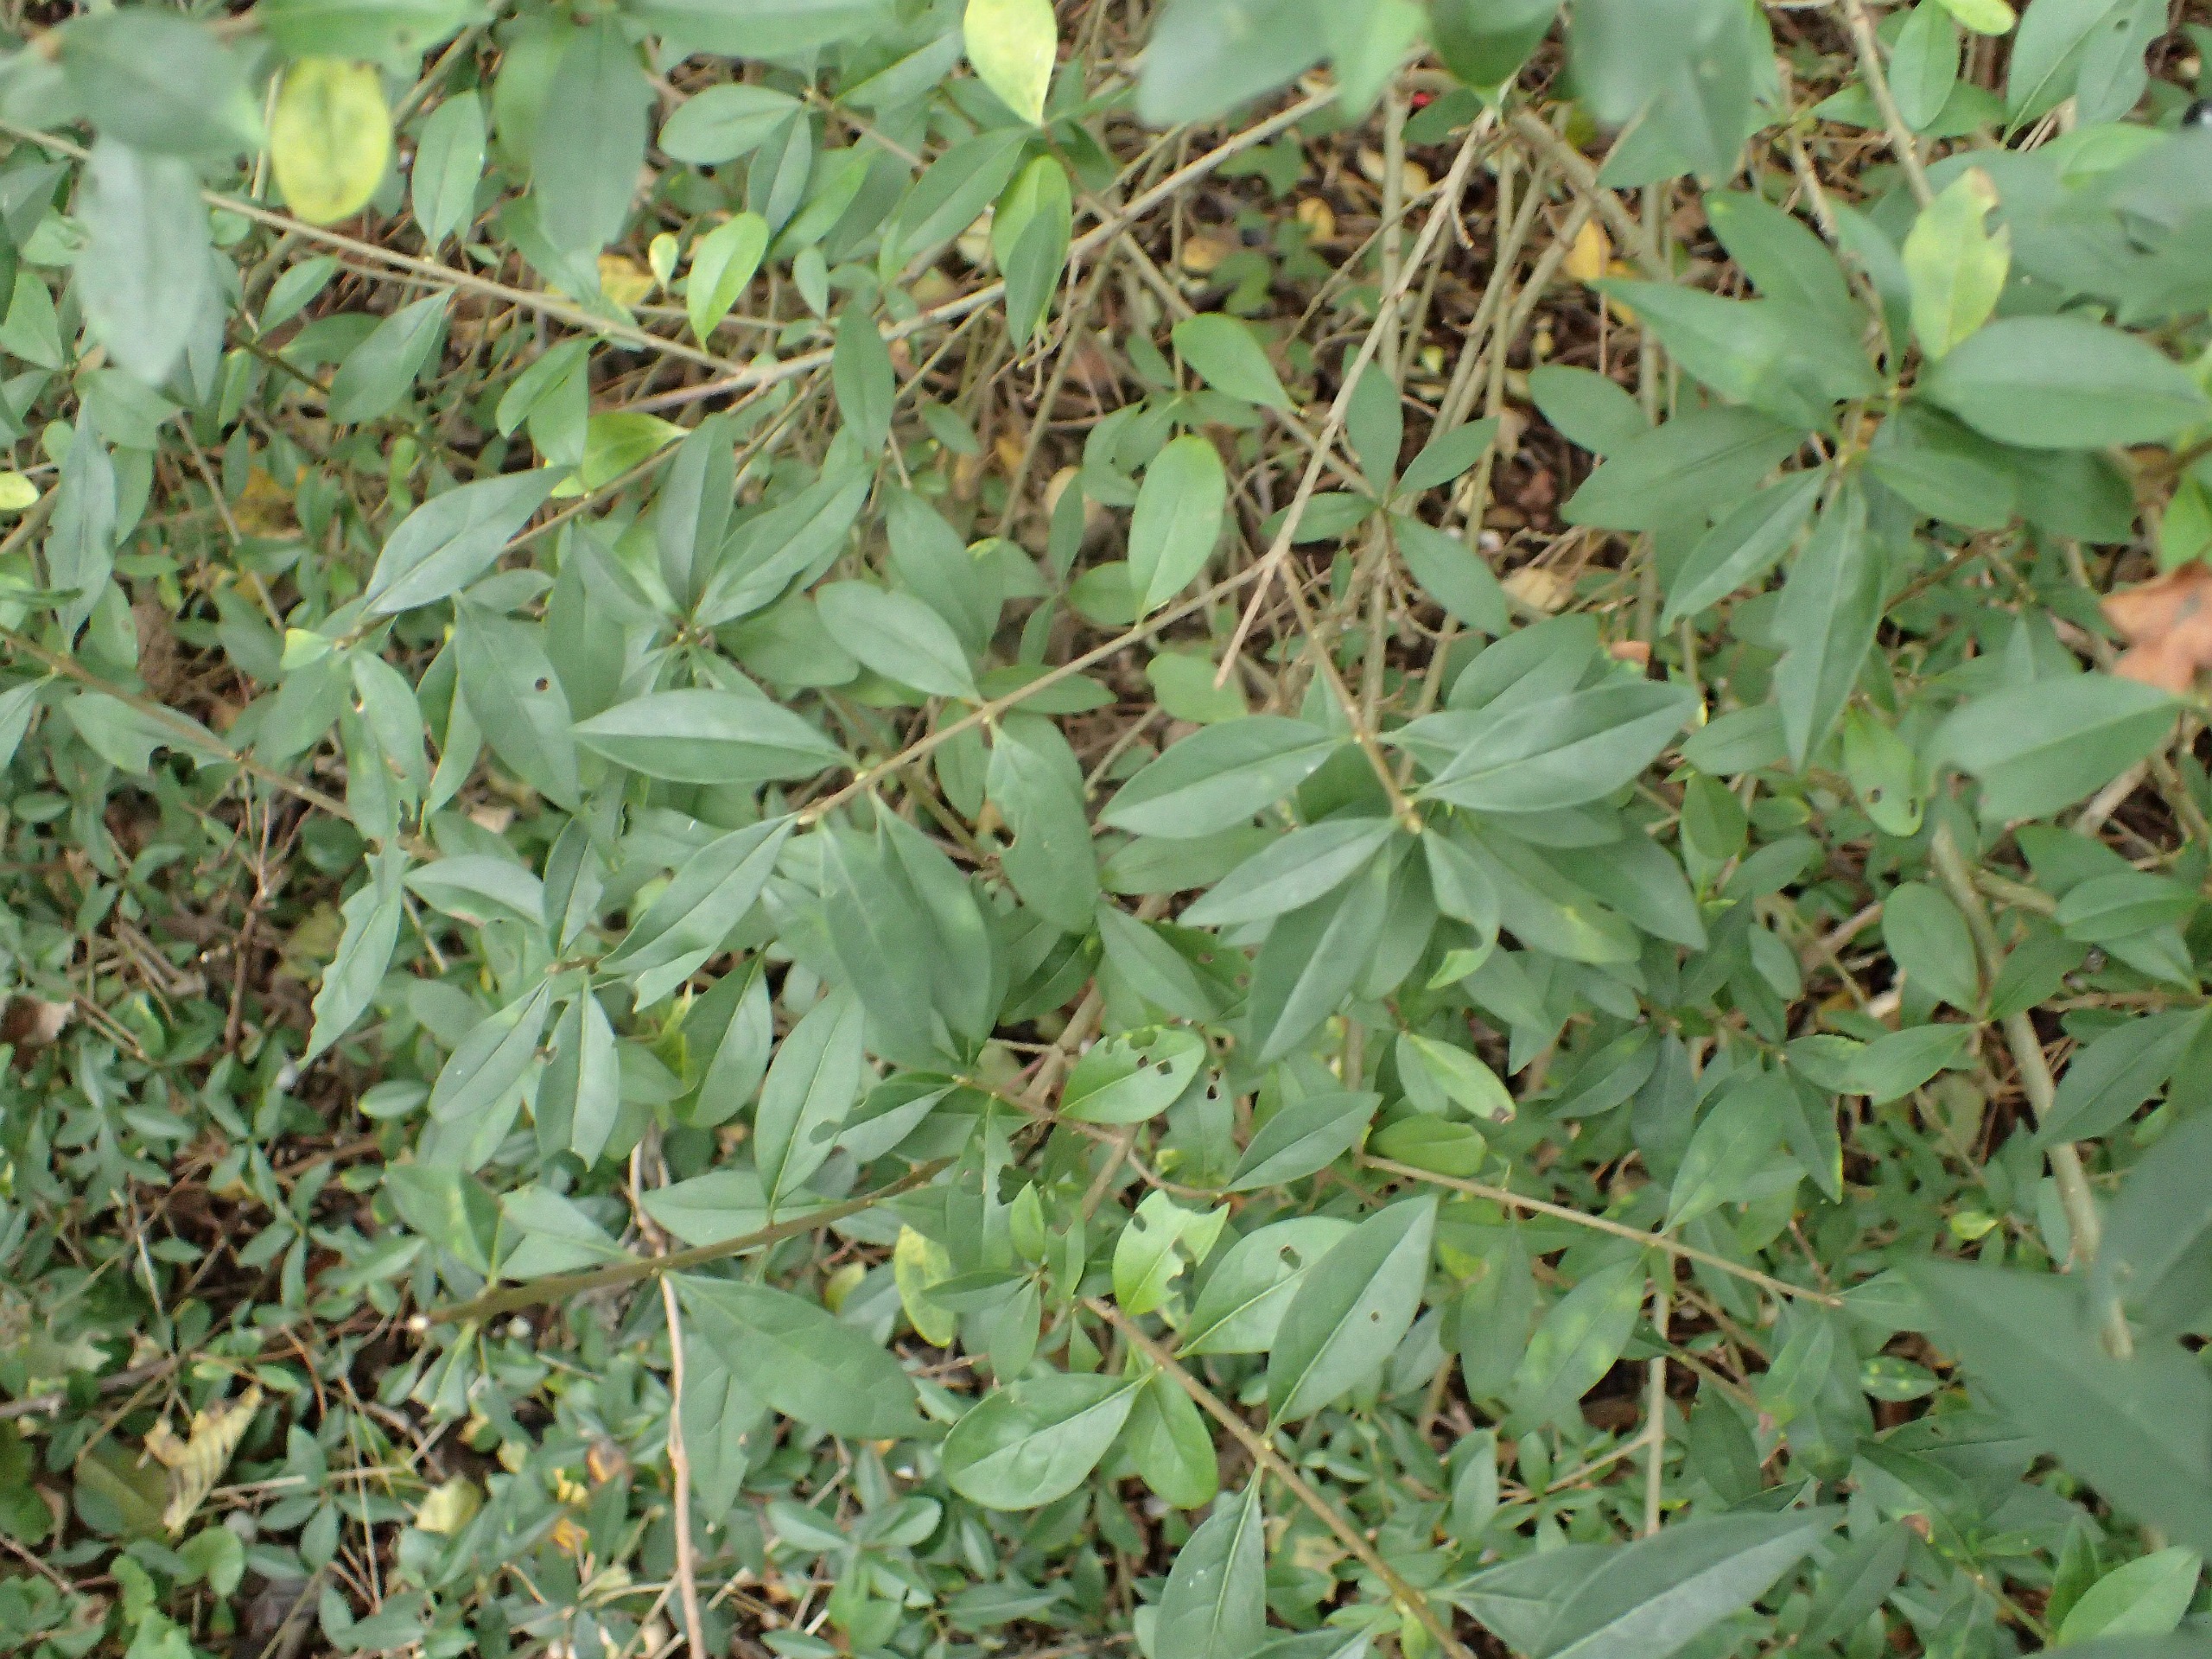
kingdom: Plantae
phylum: Tracheophyta
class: Magnoliopsida
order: Lamiales
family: Oleaceae
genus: Ligustrum
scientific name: Ligustrum vulgare
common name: Liguster
